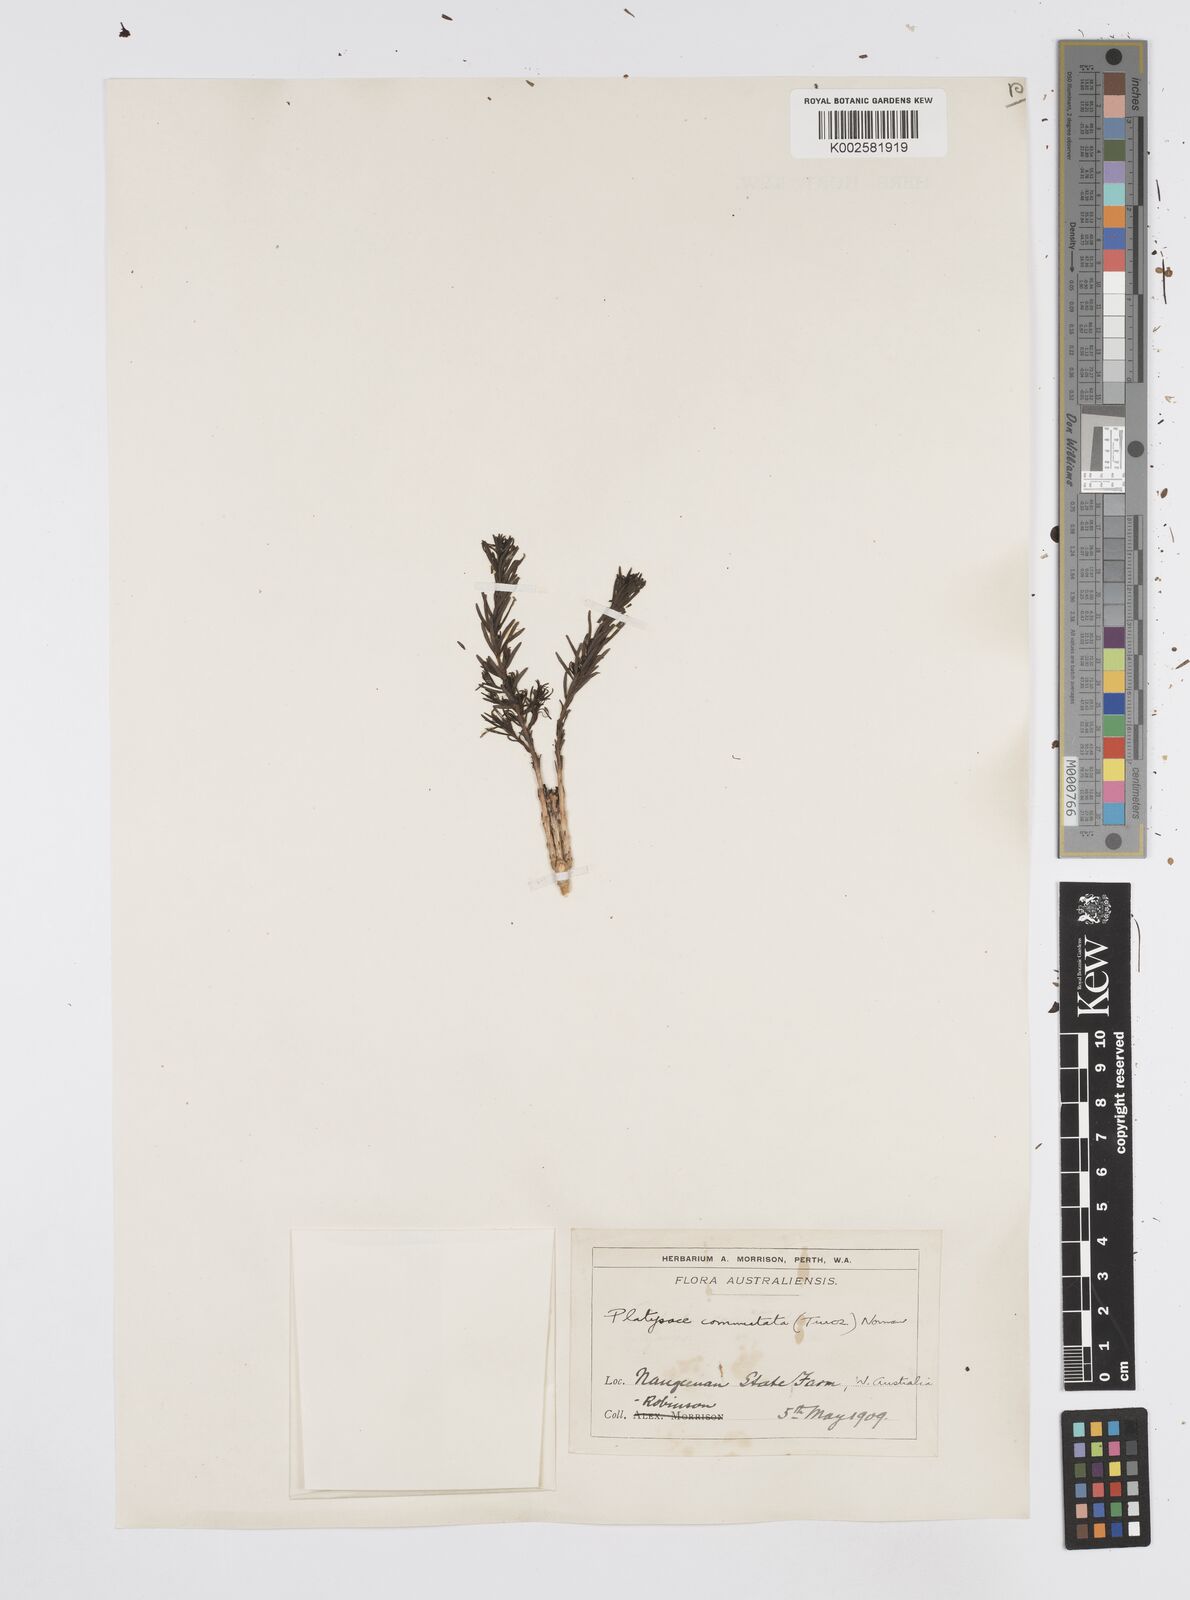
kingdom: Plantae
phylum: Tracheophyta
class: Magnoliopsida
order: Apiales
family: Apiaceae
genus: Platysace
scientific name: Platysace commutata
